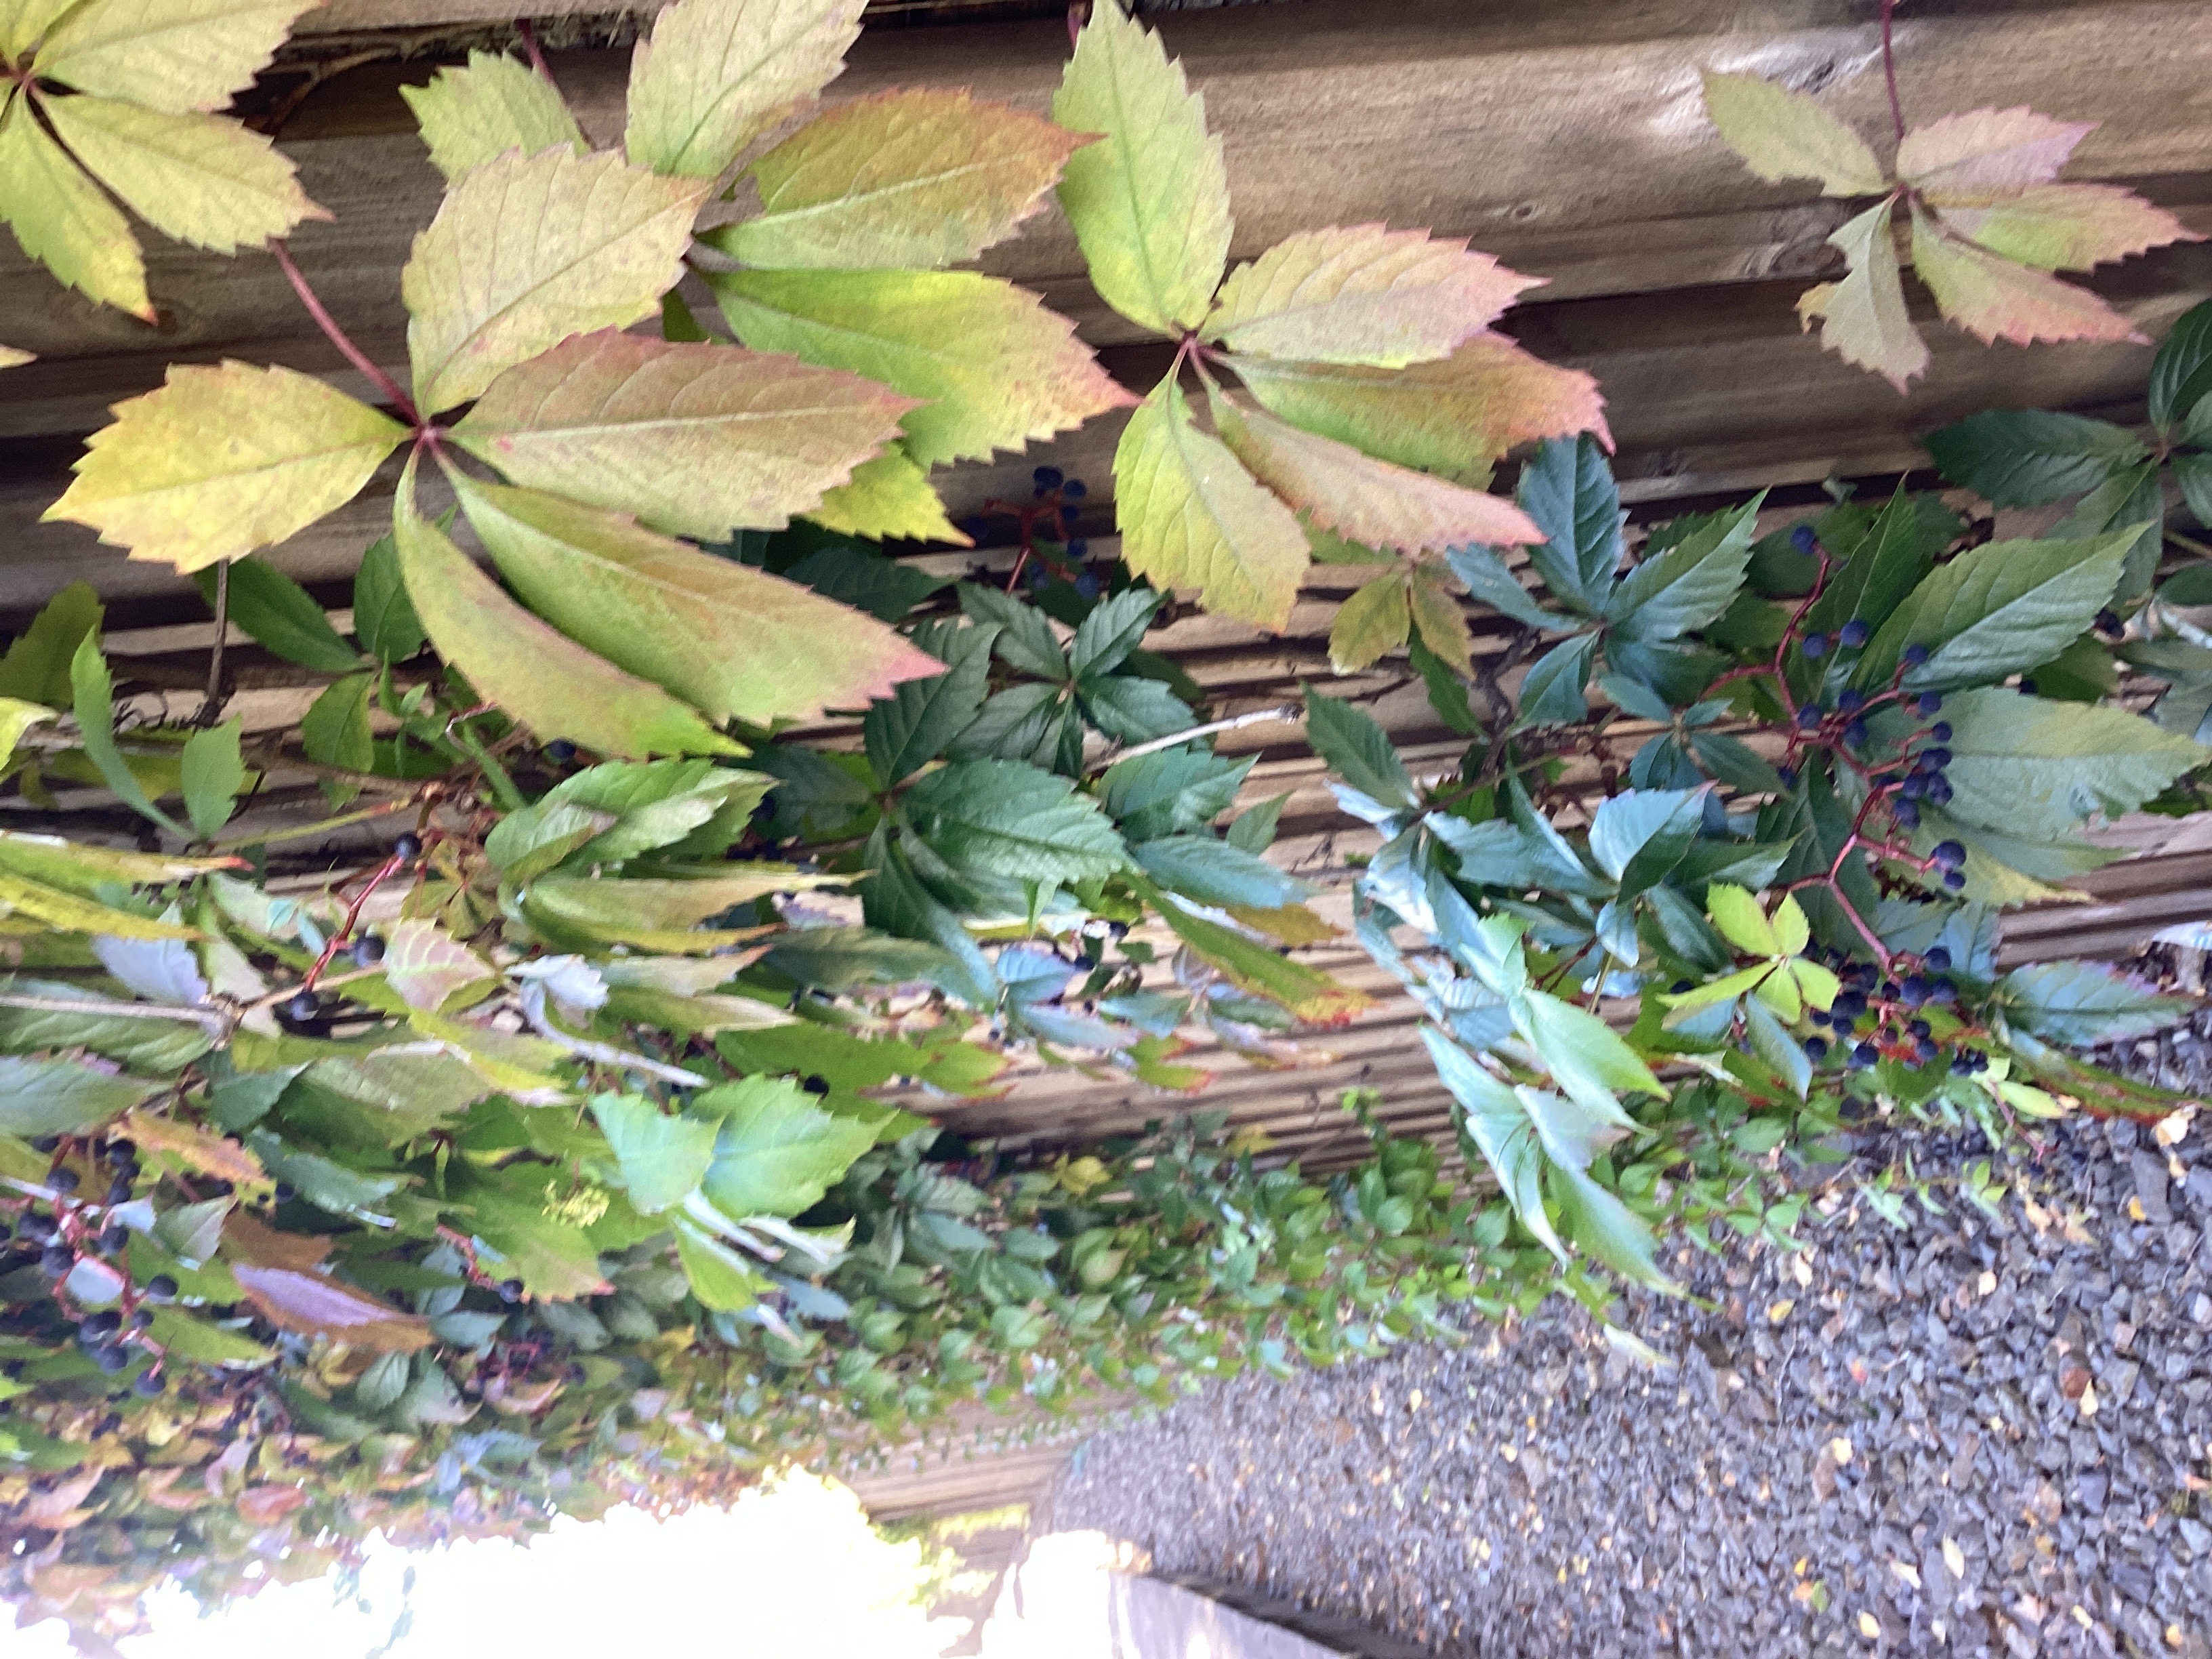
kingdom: Plantae
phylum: Tracheophyta
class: Magnoliopsida
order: Vitales
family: Vitaceae
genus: Parthenocissus
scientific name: Parthenocissus quinquefolia
